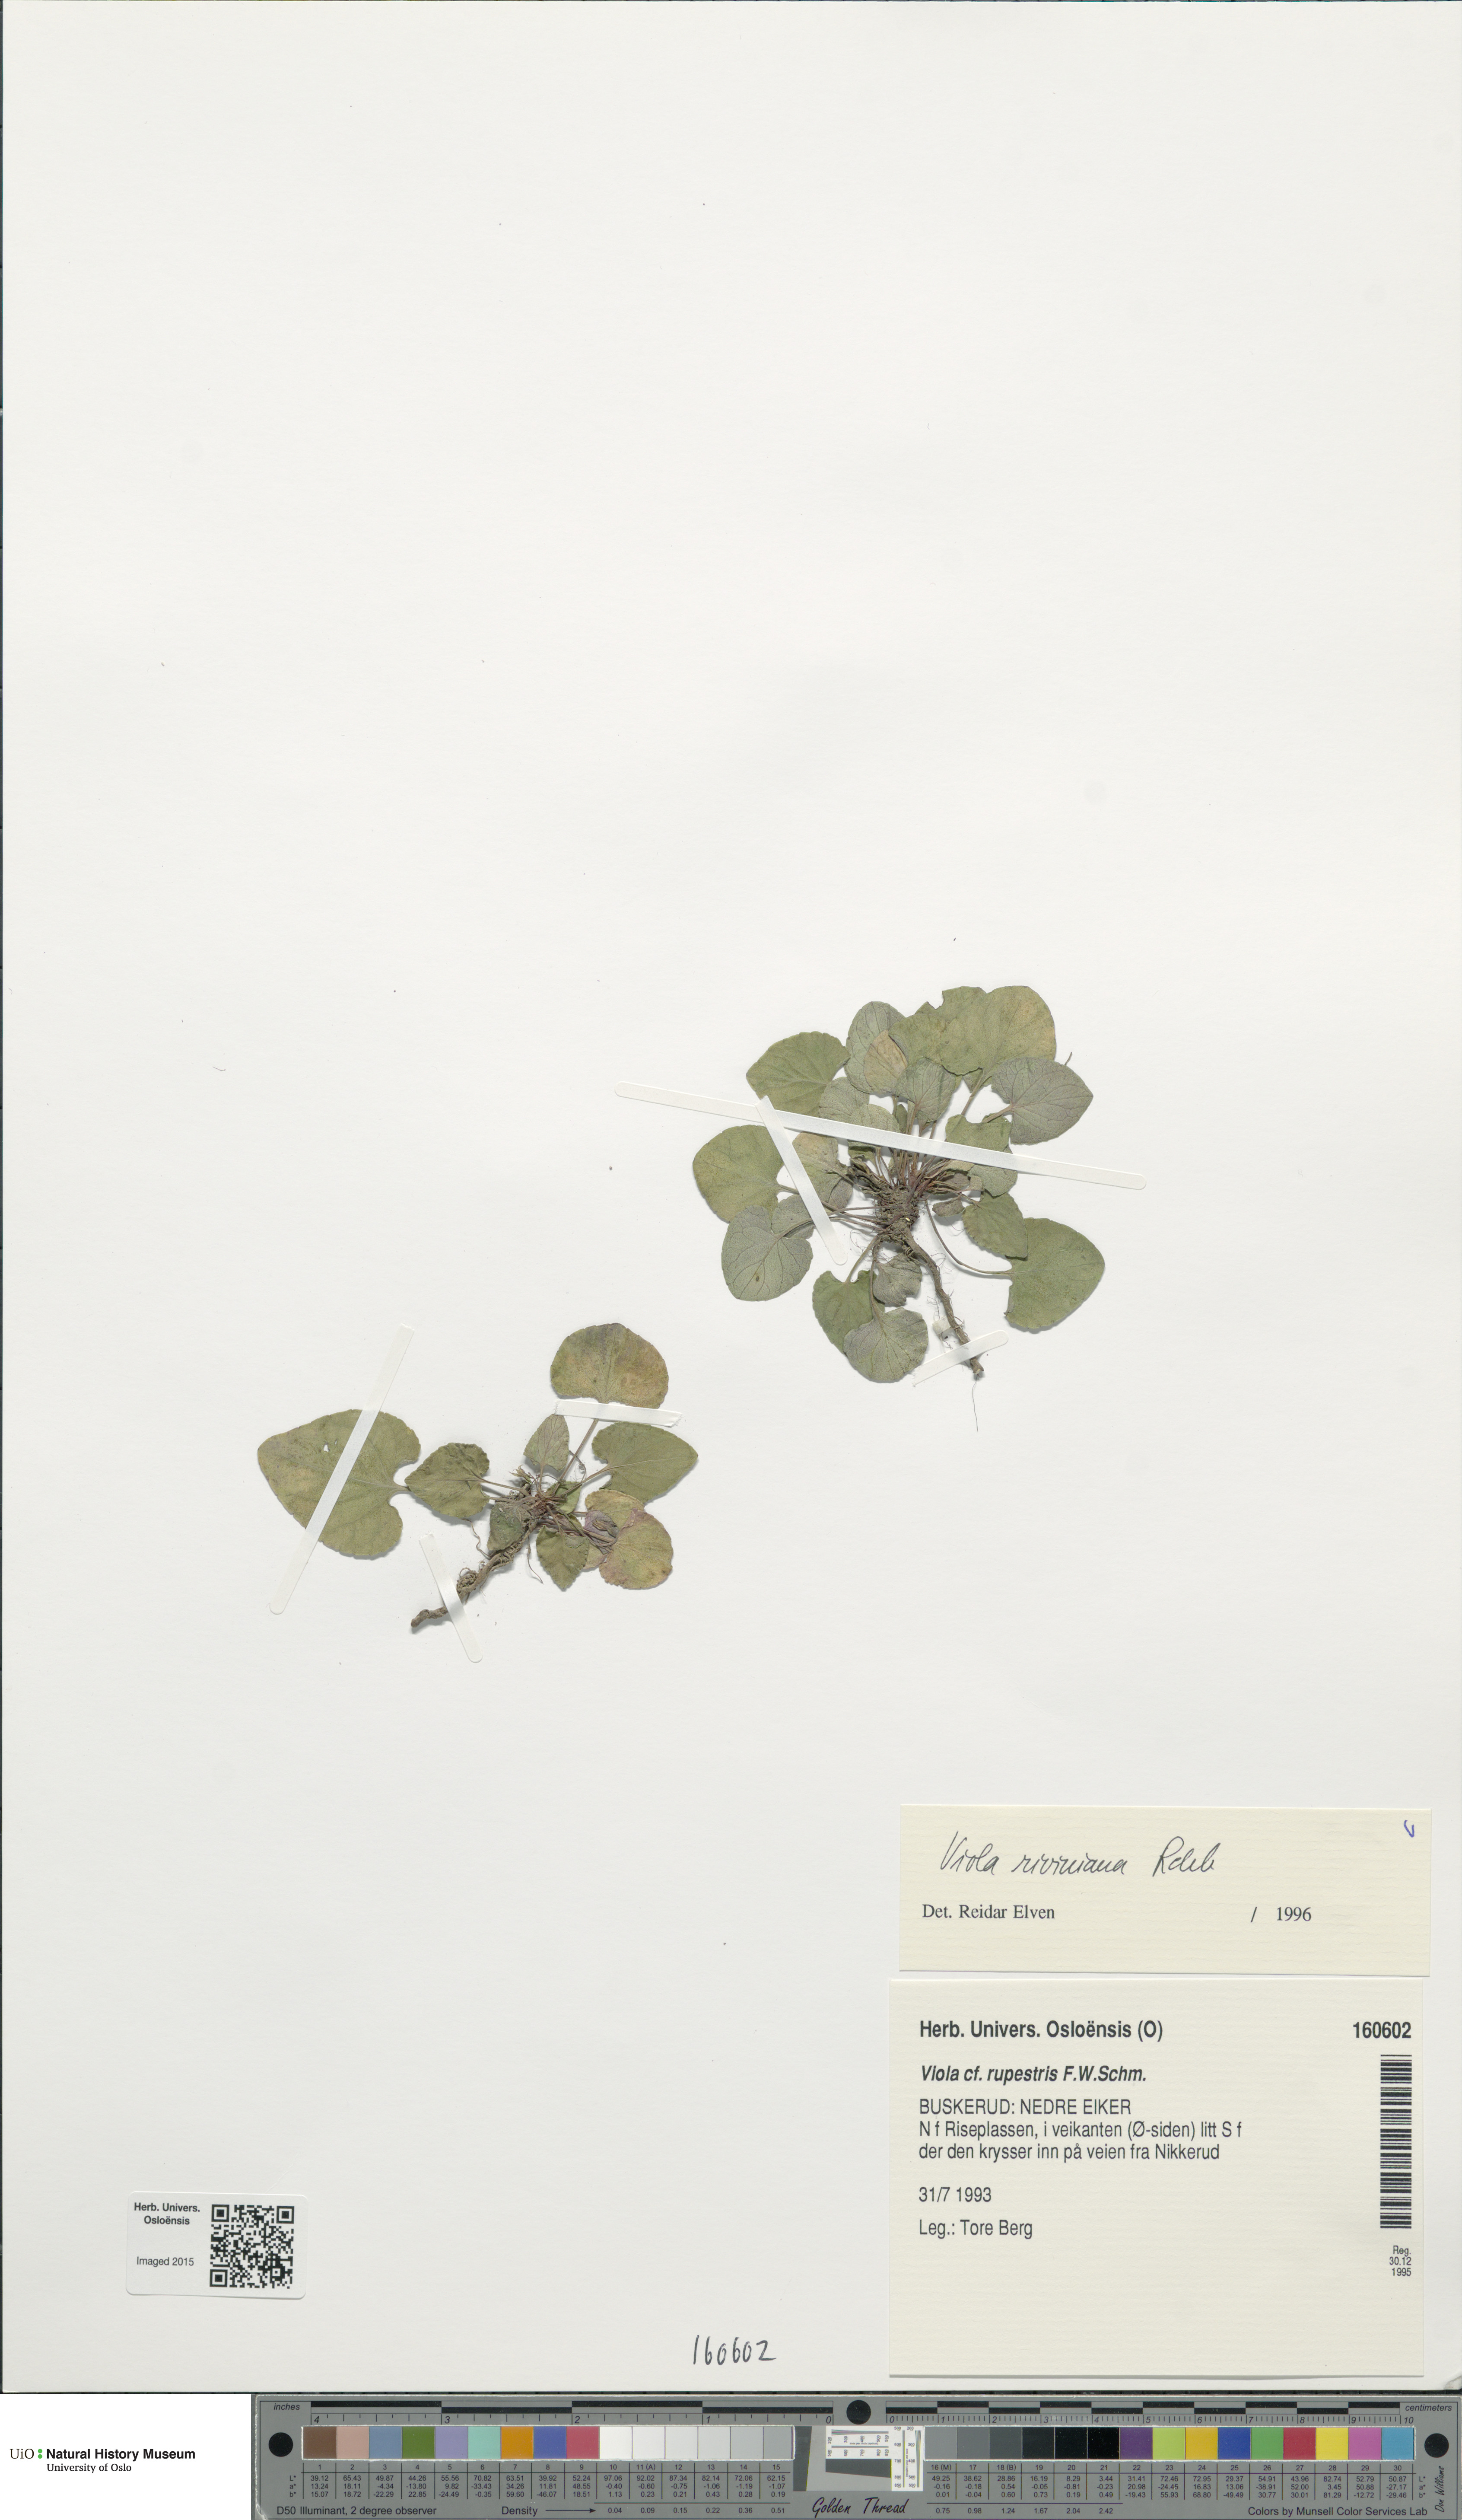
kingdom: Plantae
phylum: Tracheophyta
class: Magnoliopsida
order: Malpighiales
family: Violaceae
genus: Viola
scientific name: Viola riviniana
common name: Common dog-violet
